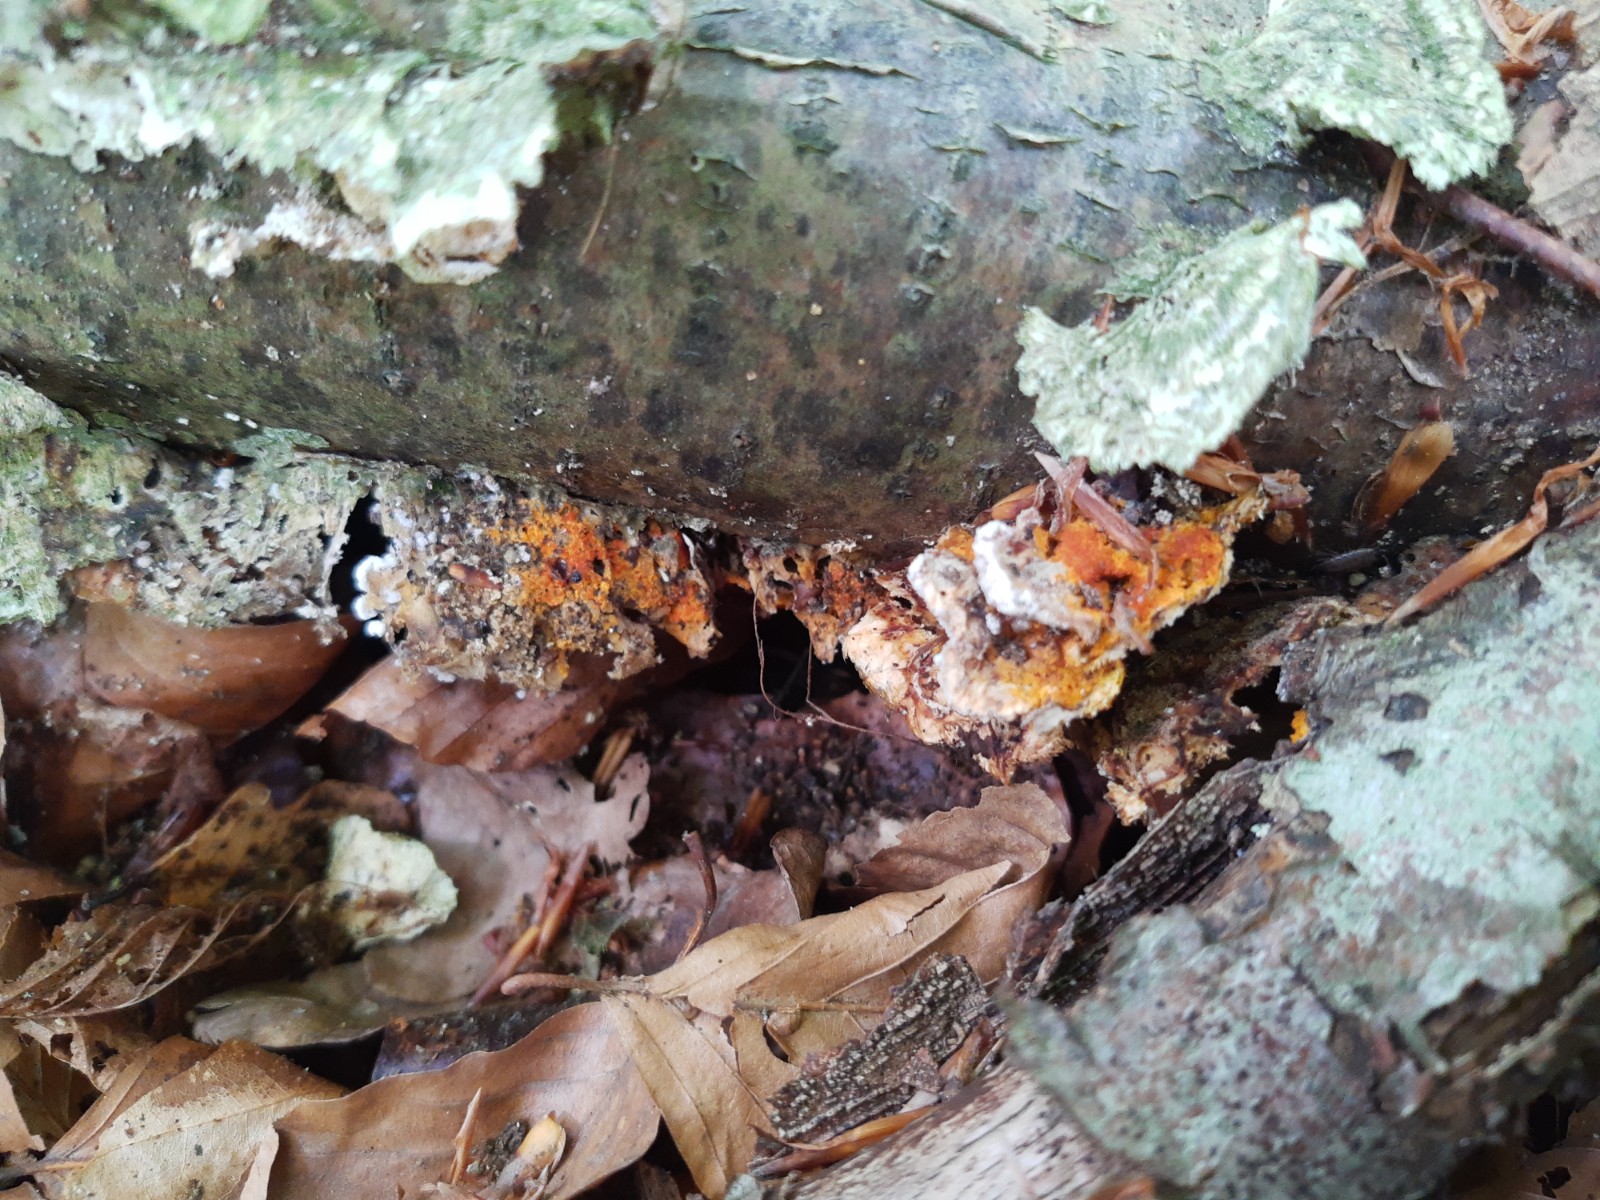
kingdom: Fungi
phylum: Ascomycota
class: Sordariomycetes
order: Hypocreales
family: Hypocreaceae
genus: Hypomyces
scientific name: Hypomyces aurantius
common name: almindelig snylteskorpe
